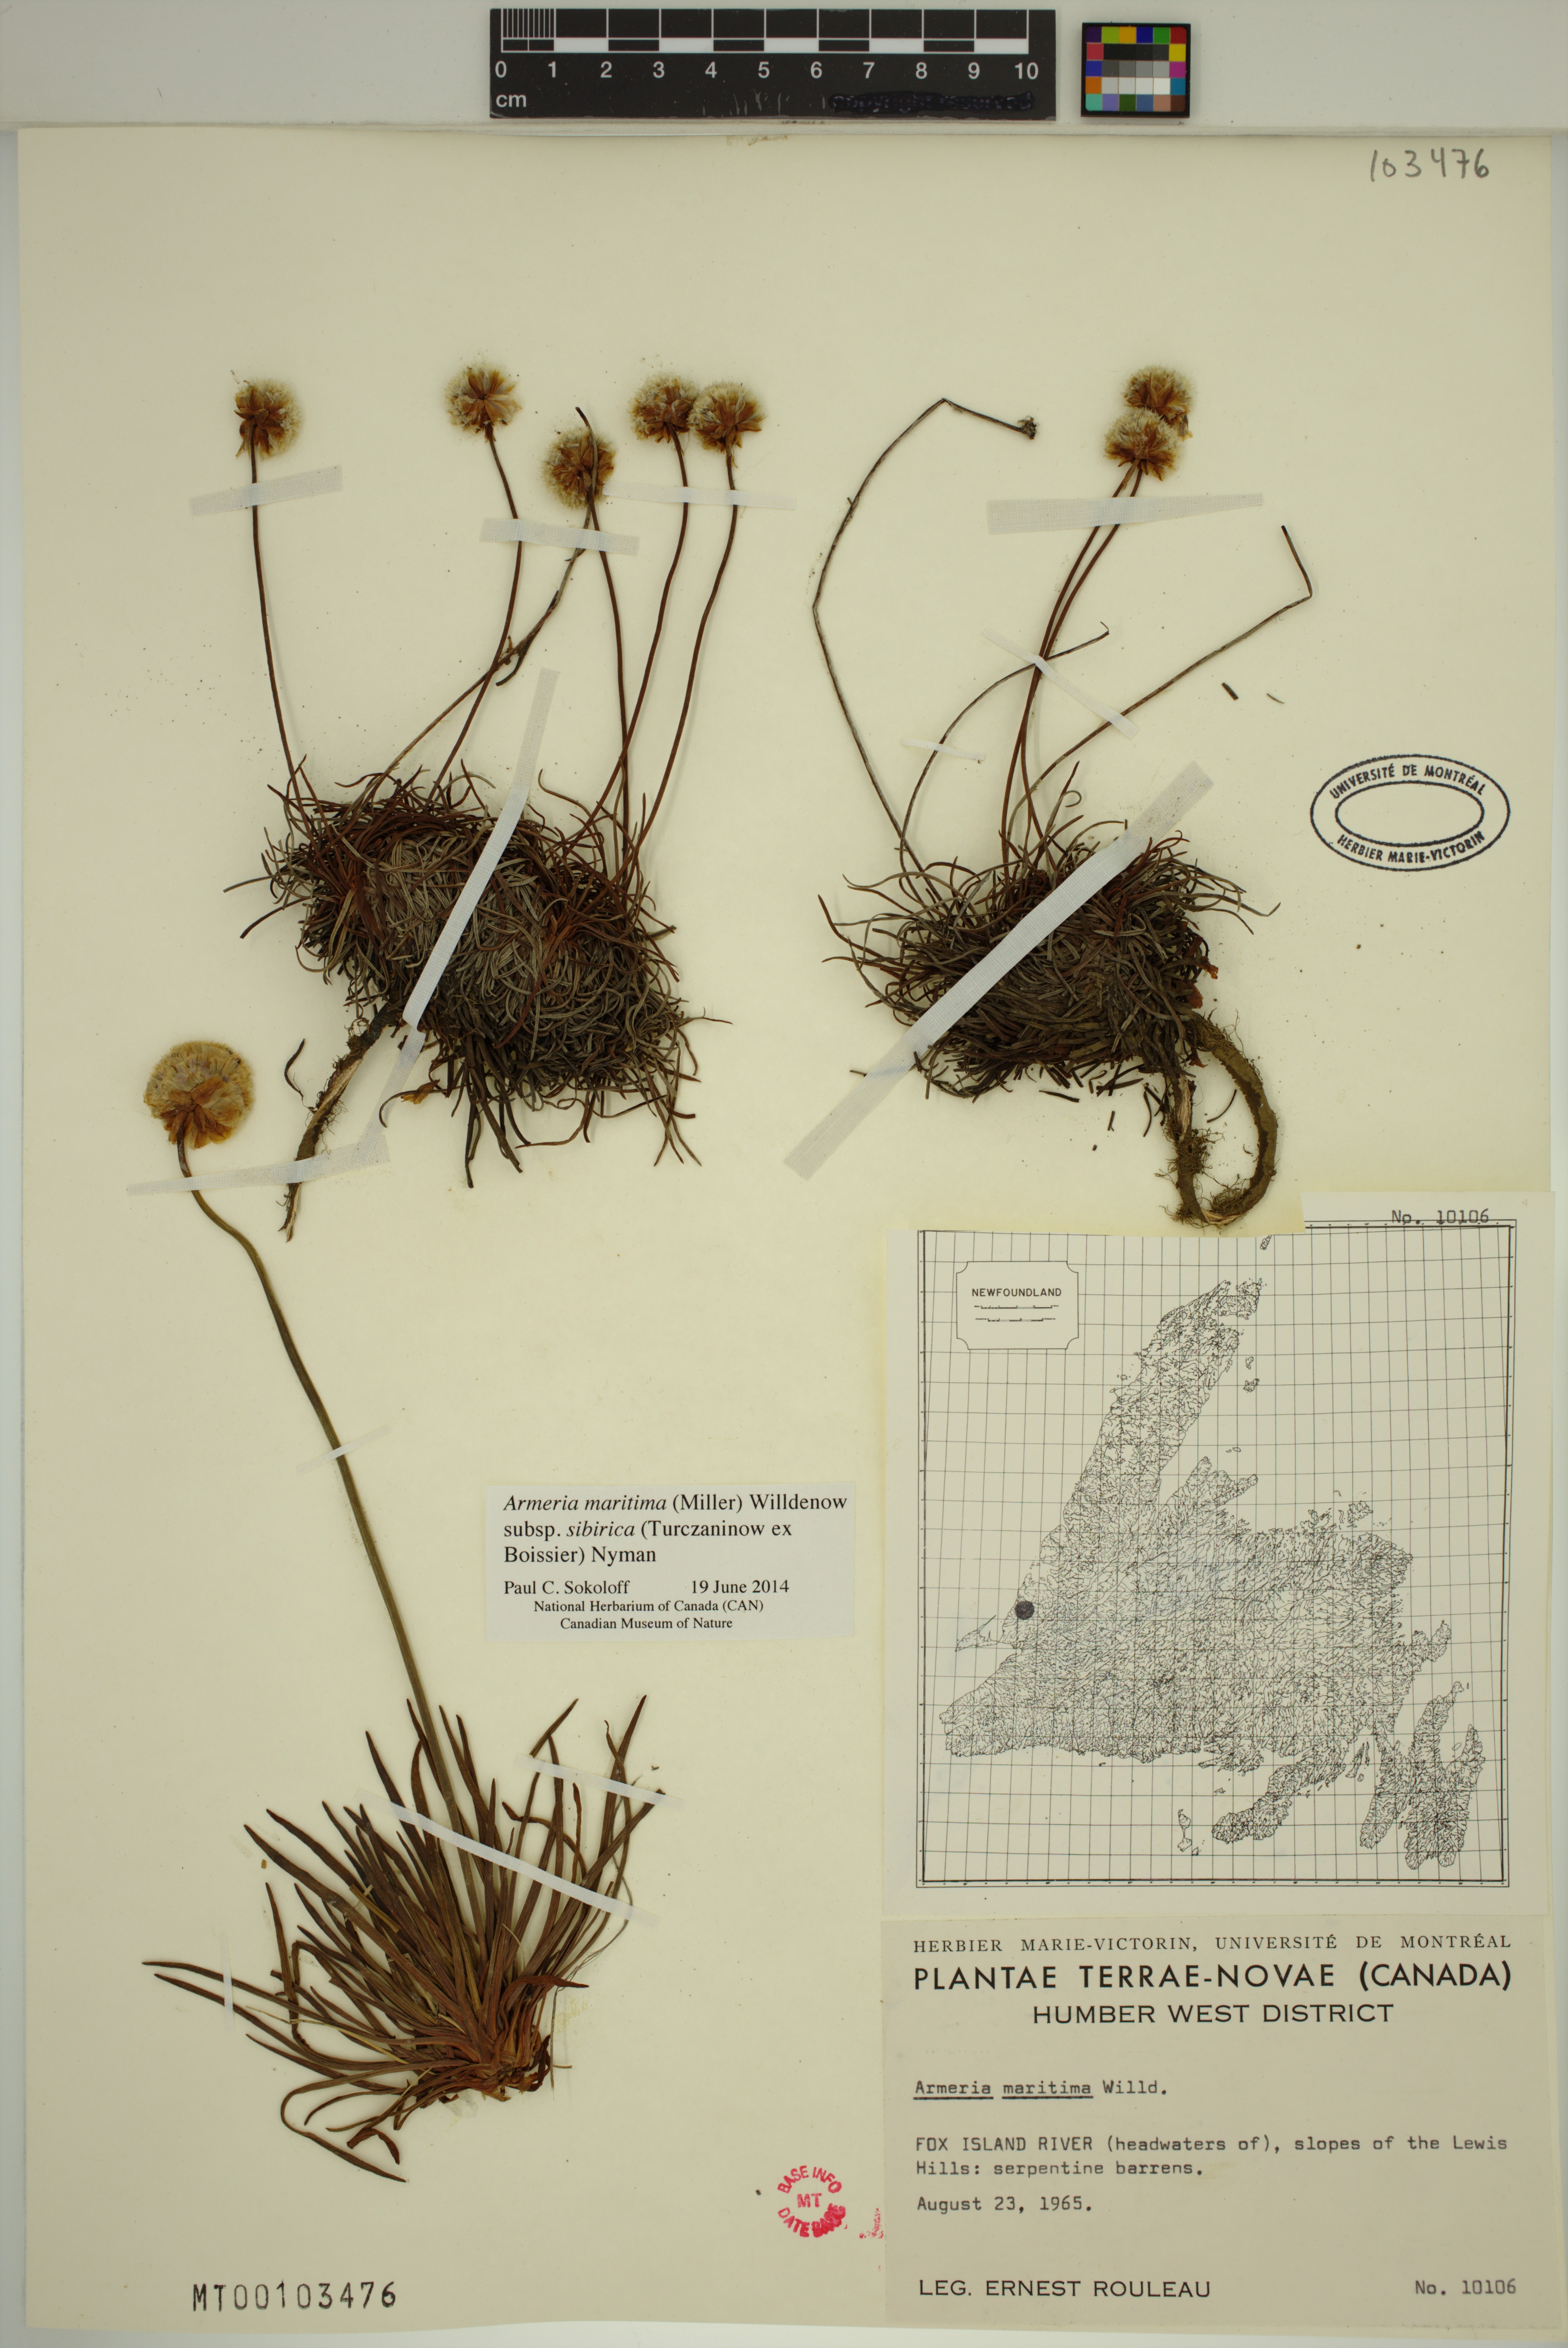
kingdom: Plantae
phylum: Tracheophyta
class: Magnoliopsida
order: Caryophyllales
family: Plumbaginaceae
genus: Armeria
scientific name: Armeria maritima
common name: Thrift
